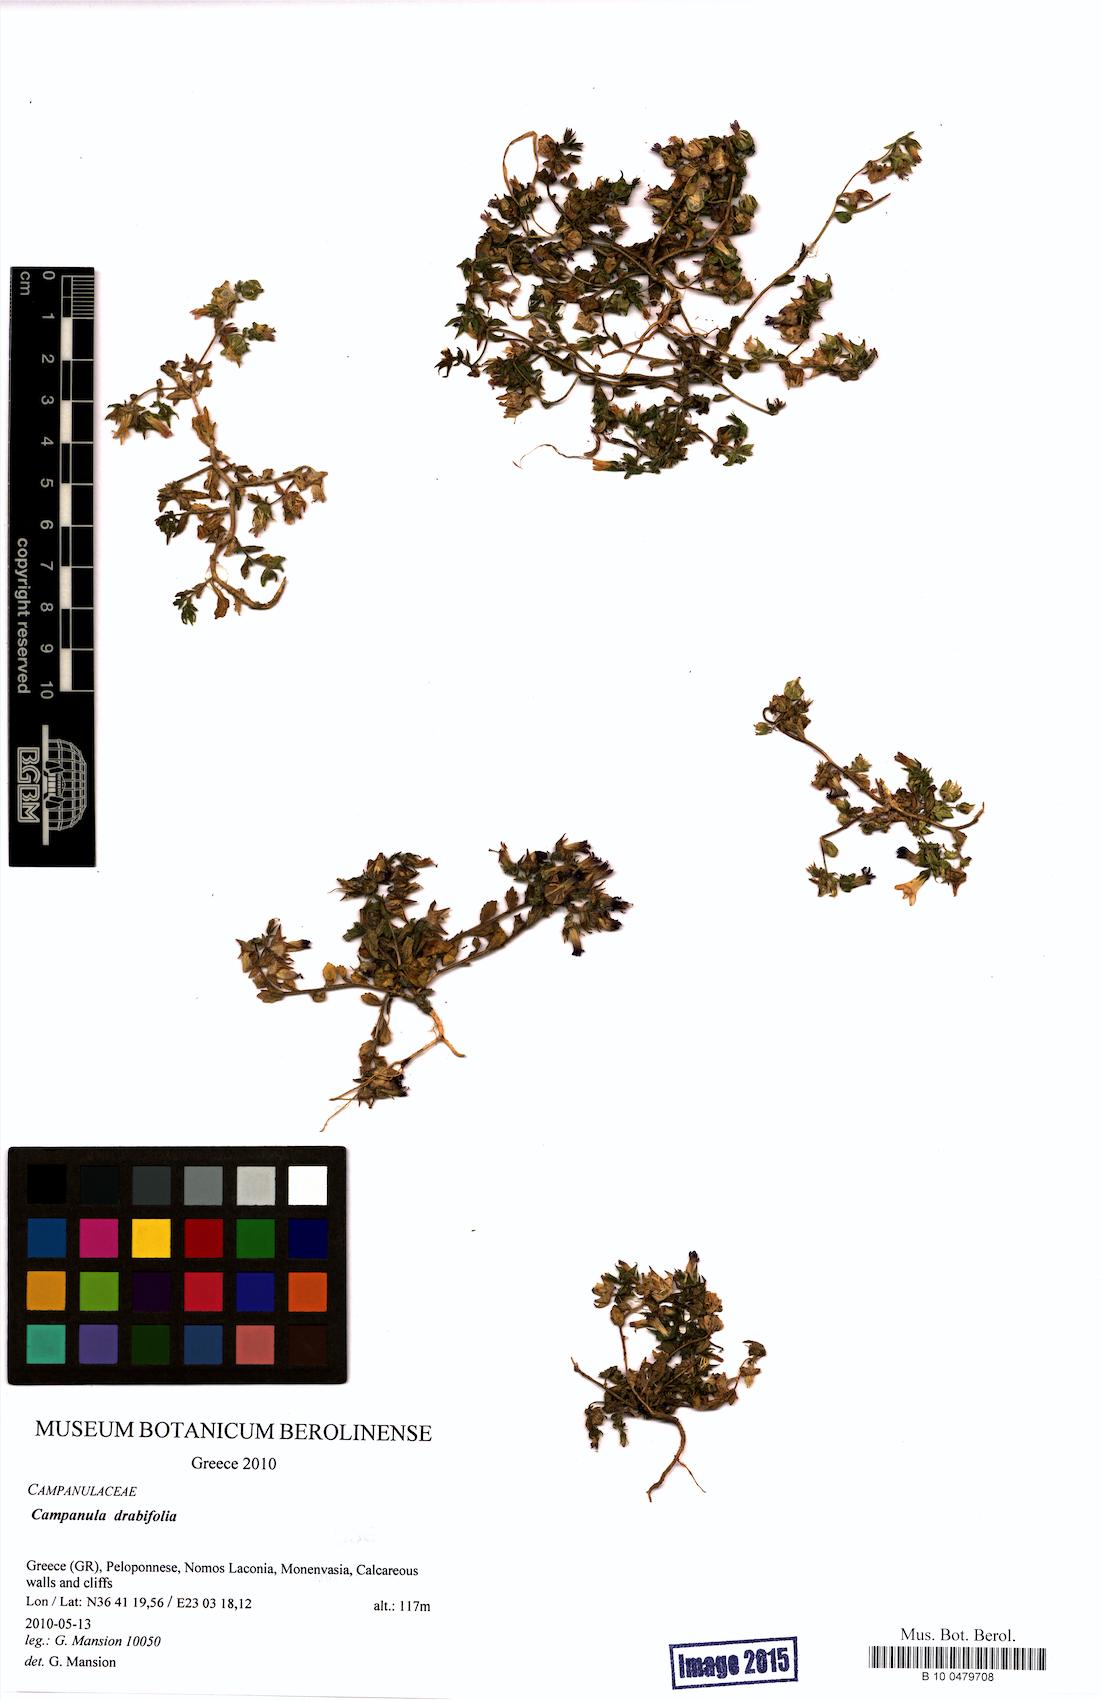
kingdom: Plantae
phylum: Tracheophyta
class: Magnoliopsida
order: Asterales
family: Campanulaceae
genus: Campanula
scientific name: Campanula drabifolia
